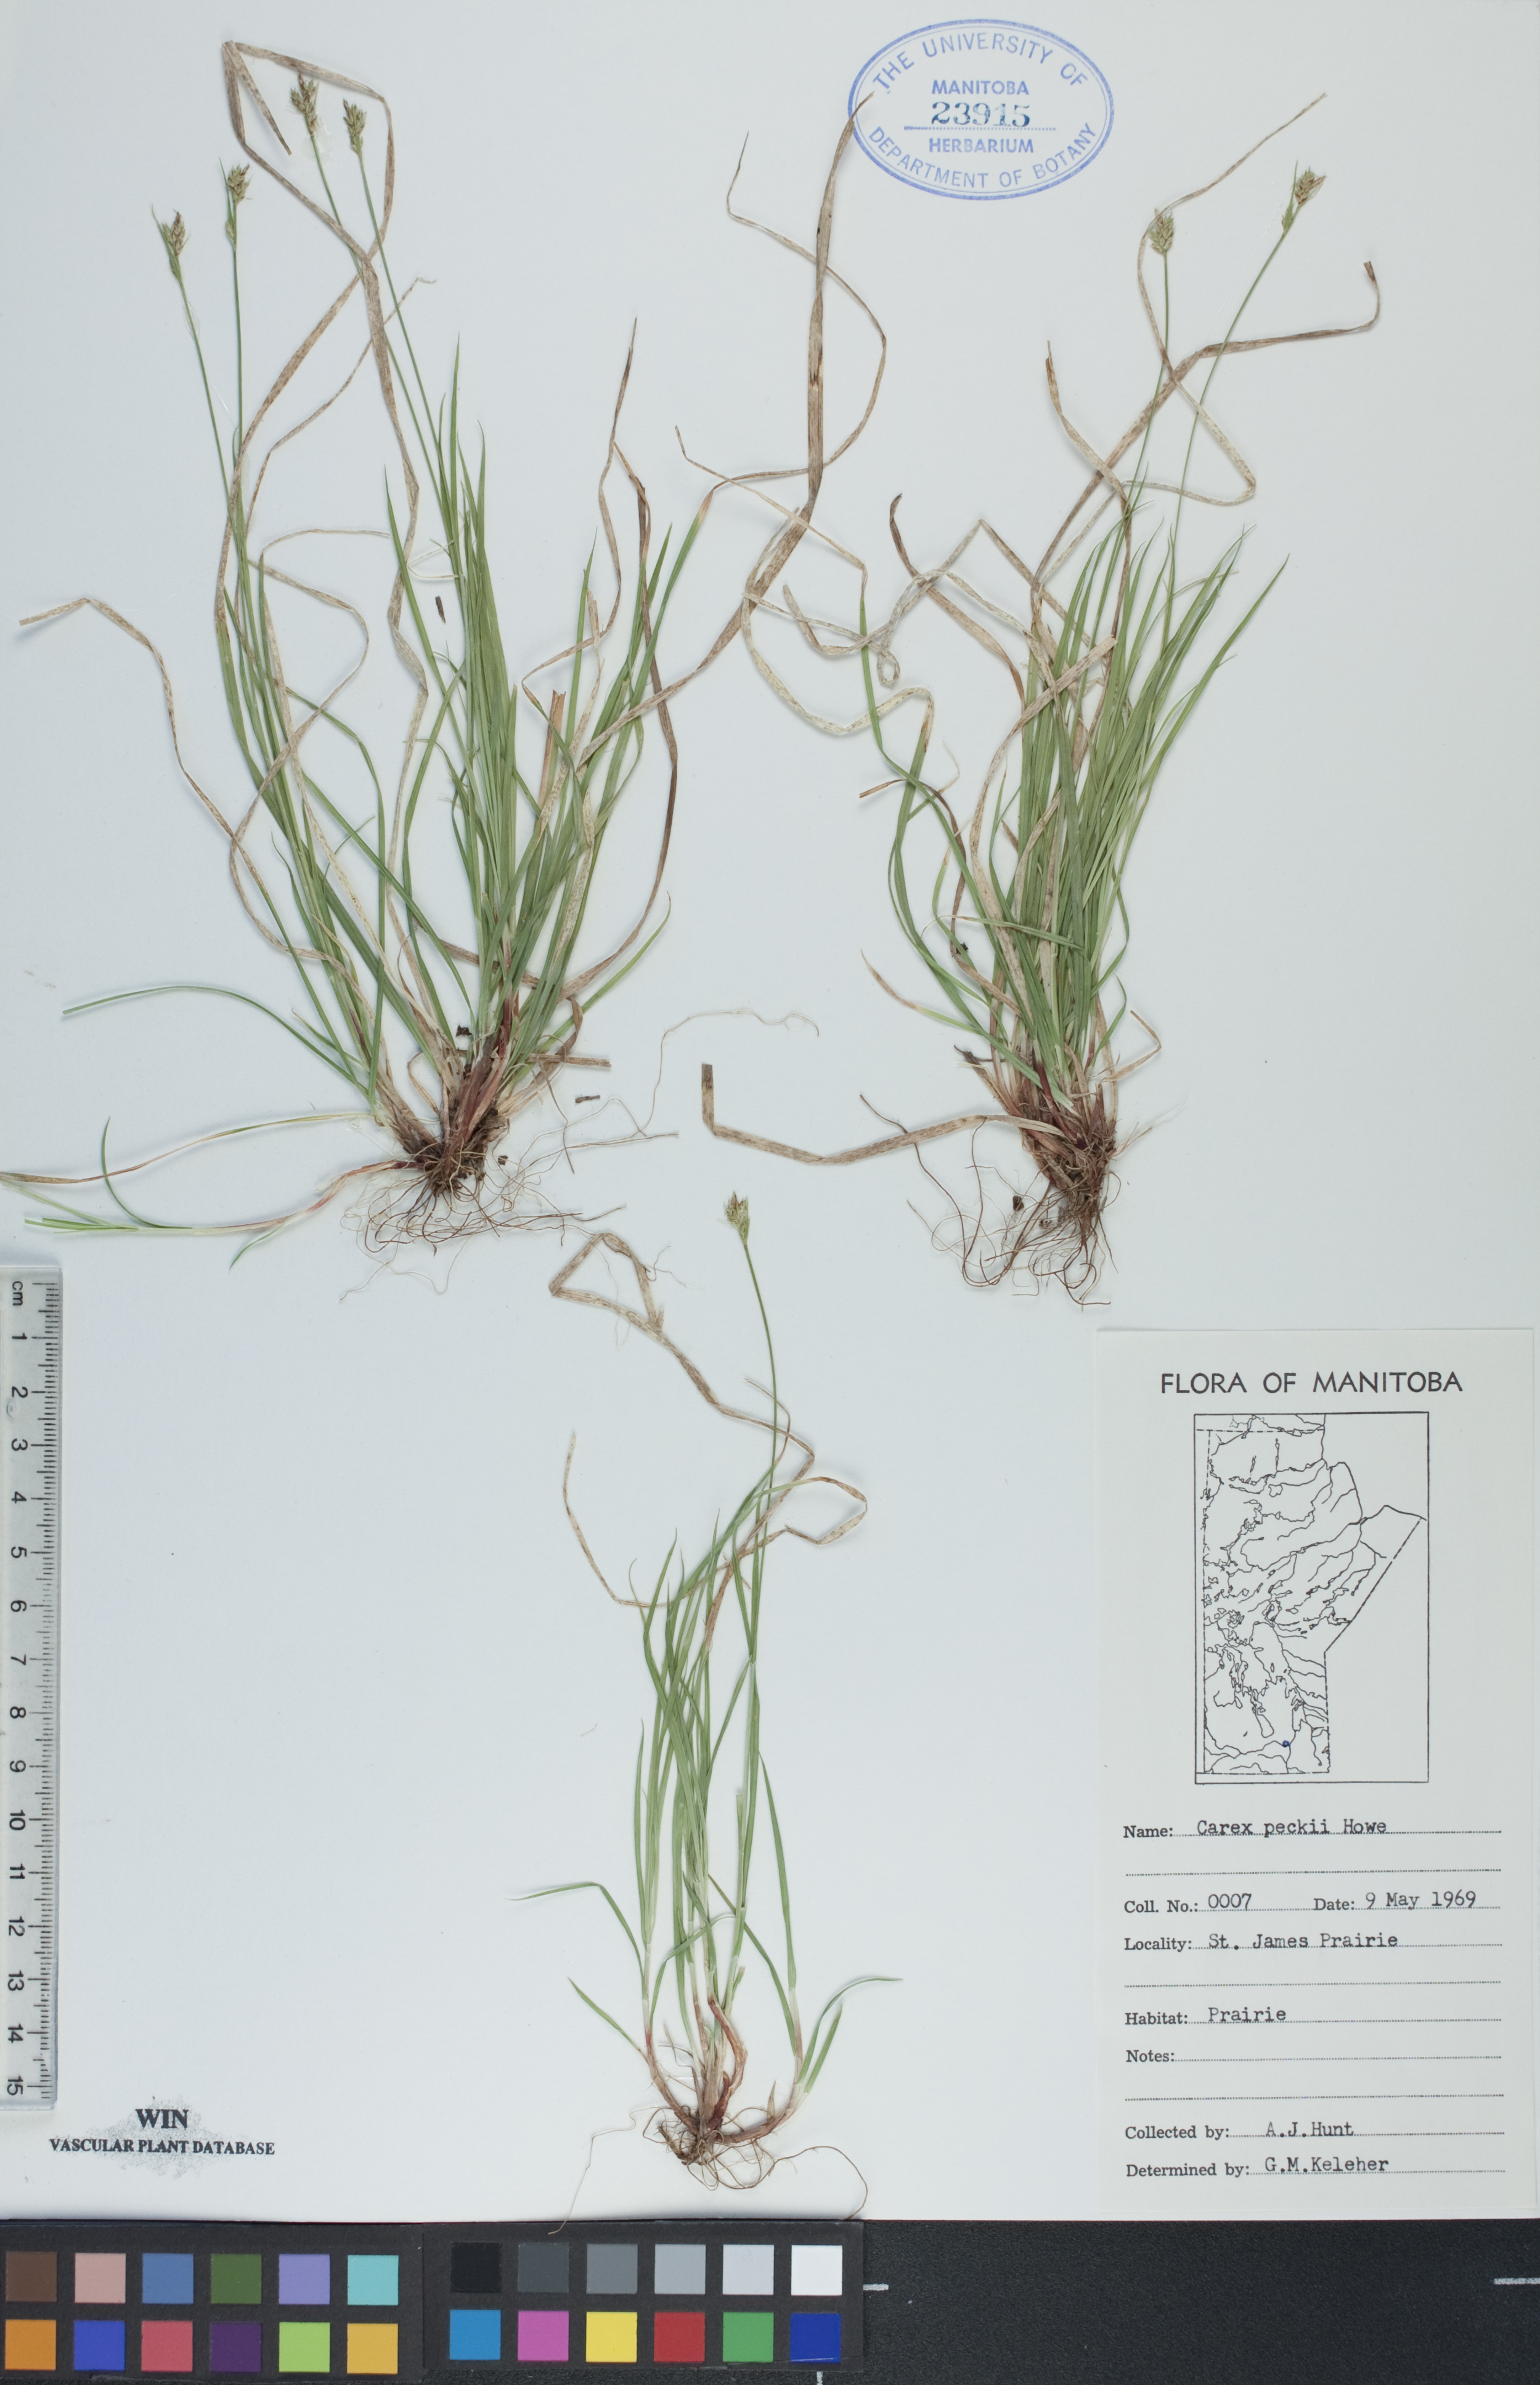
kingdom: Plantae
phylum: Tracheophyta
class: Liliopsida
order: Poales
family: Cyperaceae
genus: Carex
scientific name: Carex peckii
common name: Peck's oak sedge
